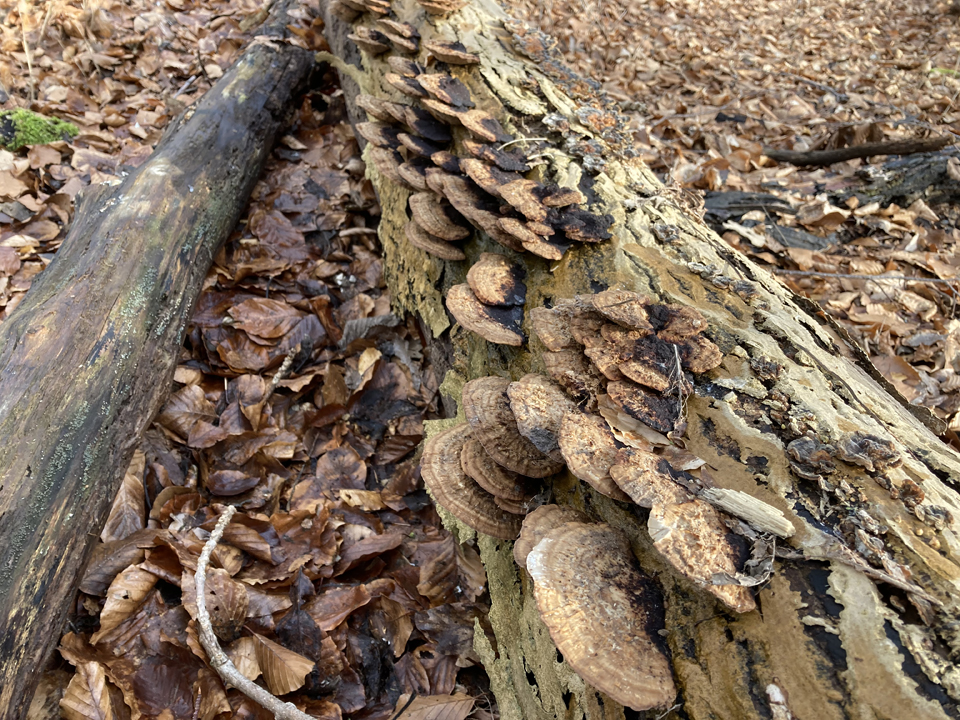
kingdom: Fungi
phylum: Basidiomycota
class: Agaricomycetes
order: Polyporales
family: Polyporaceae
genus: Daedaleopsis
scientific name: Daedaleopsis confragosa
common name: rødmende læderporesvamp
